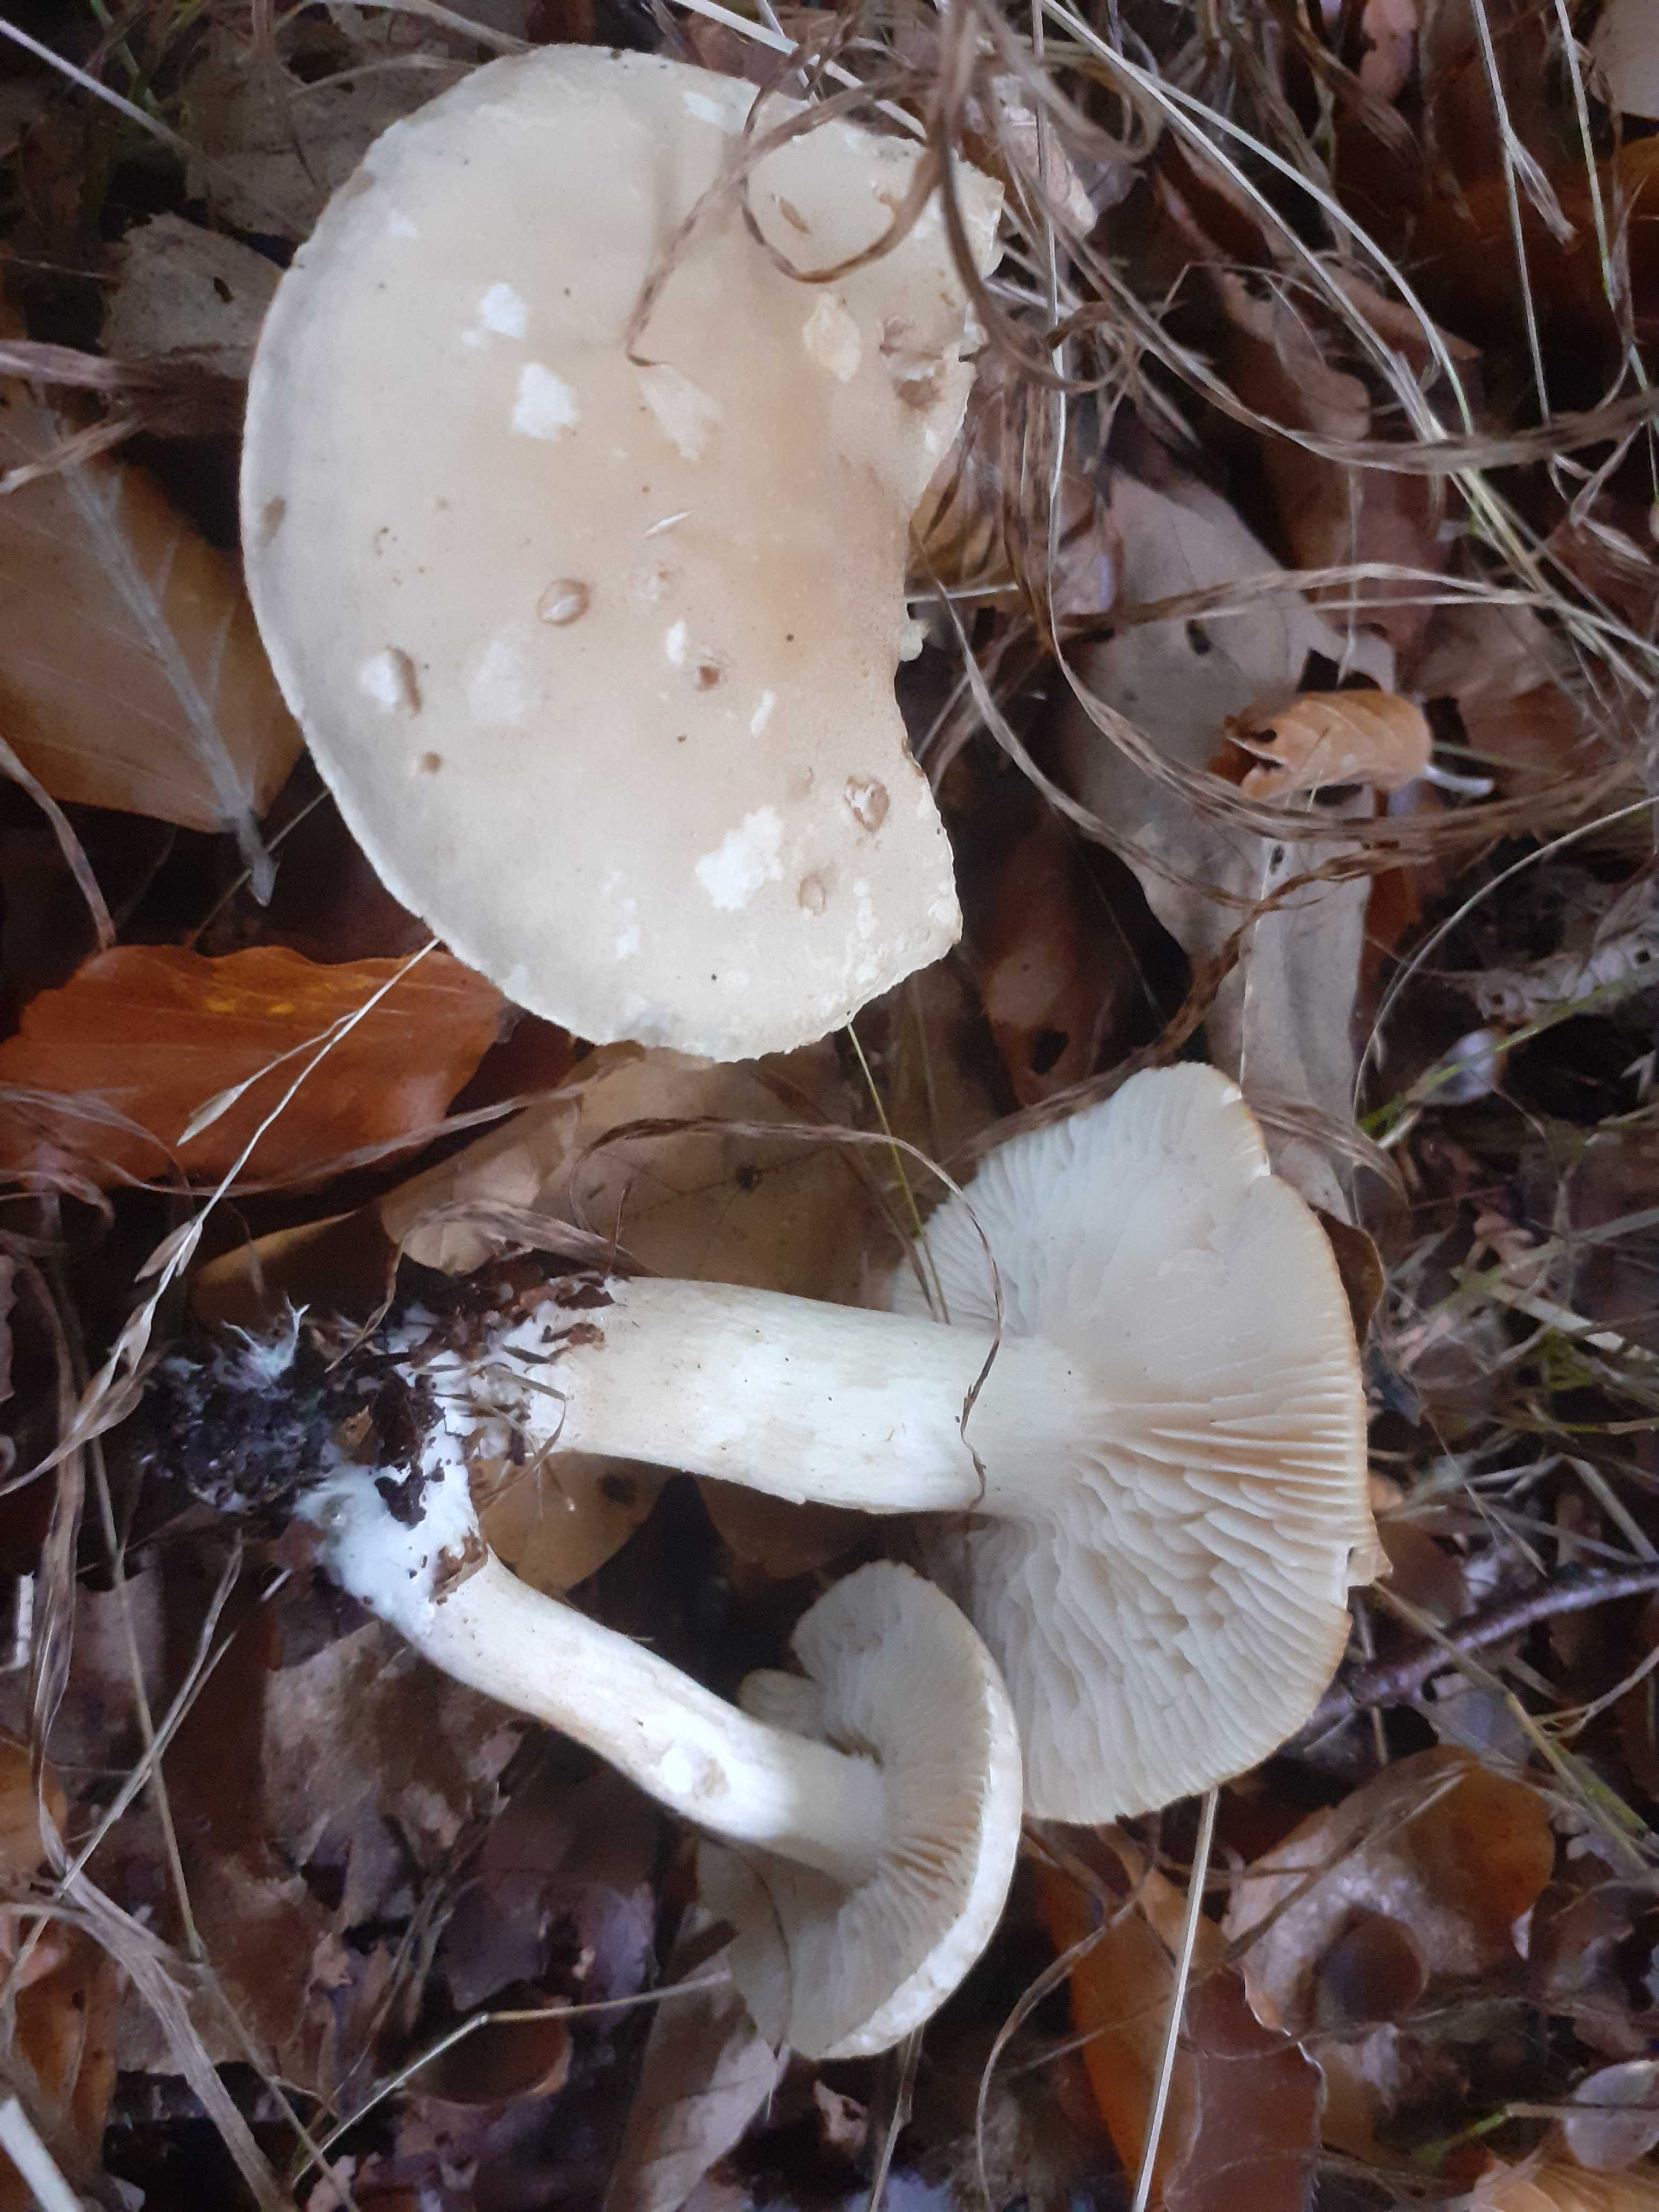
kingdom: Fungi
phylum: Basidiomycota
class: Agaricomycetes
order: Agaricales
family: Tricholomataceae
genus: Tricholoma
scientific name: Tricholoma lascivum
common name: stinkende ridderhat
